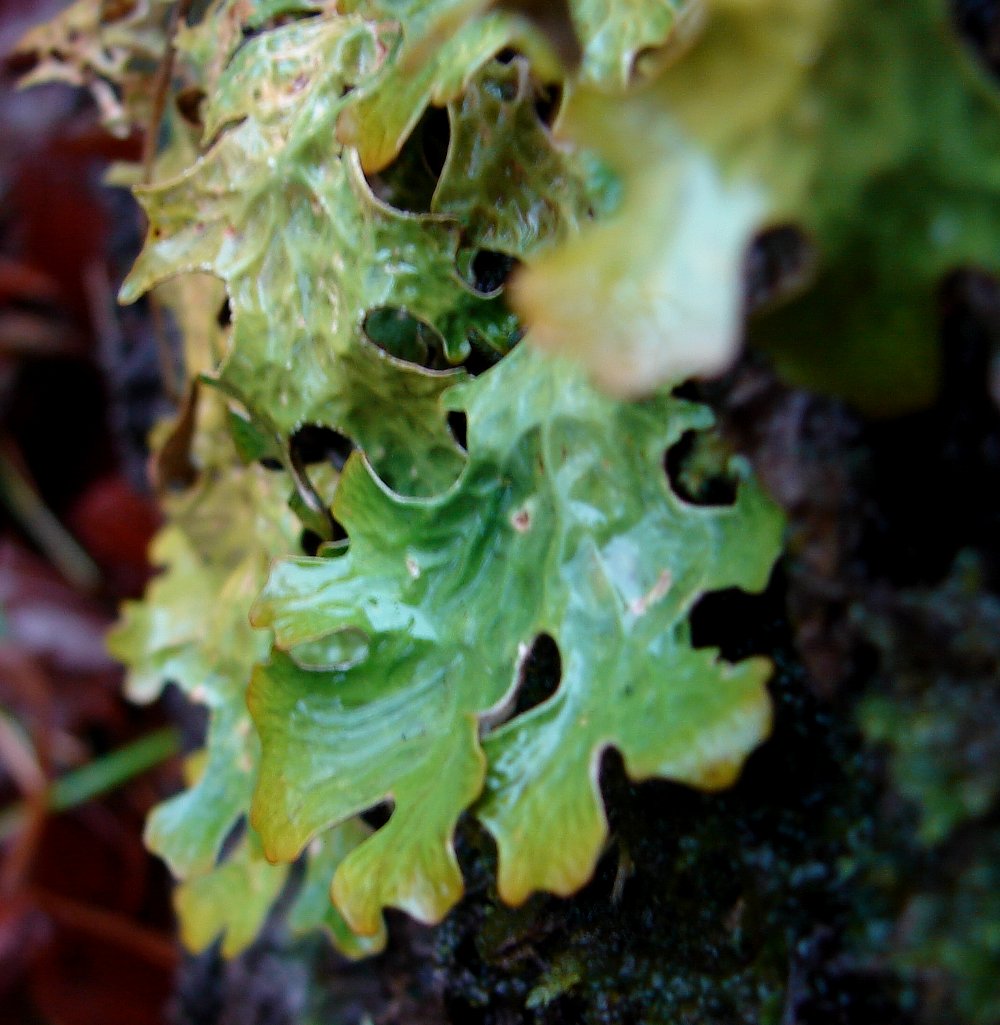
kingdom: Fungi
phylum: Ascomycota
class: Lecanoromycetes
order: Peltigerales
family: Lobariaceae
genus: Lobaria
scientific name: Lobaria pulmonaria
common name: almindelig lungelav
